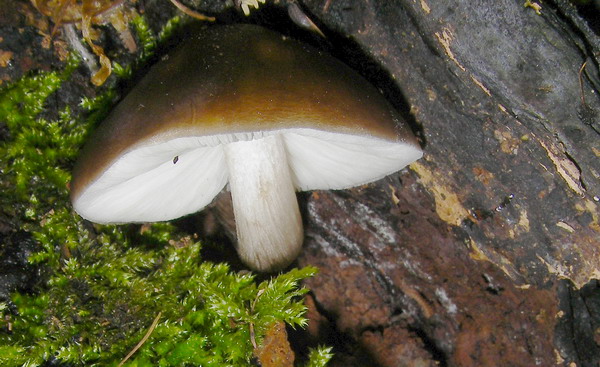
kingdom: Fungi
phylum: Basidiomycota
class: Agaricomycetes
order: Agaricales
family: Pluteaceae
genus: Pluteus
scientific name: Pluteus cervinus
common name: sodfarvet skærmhat
